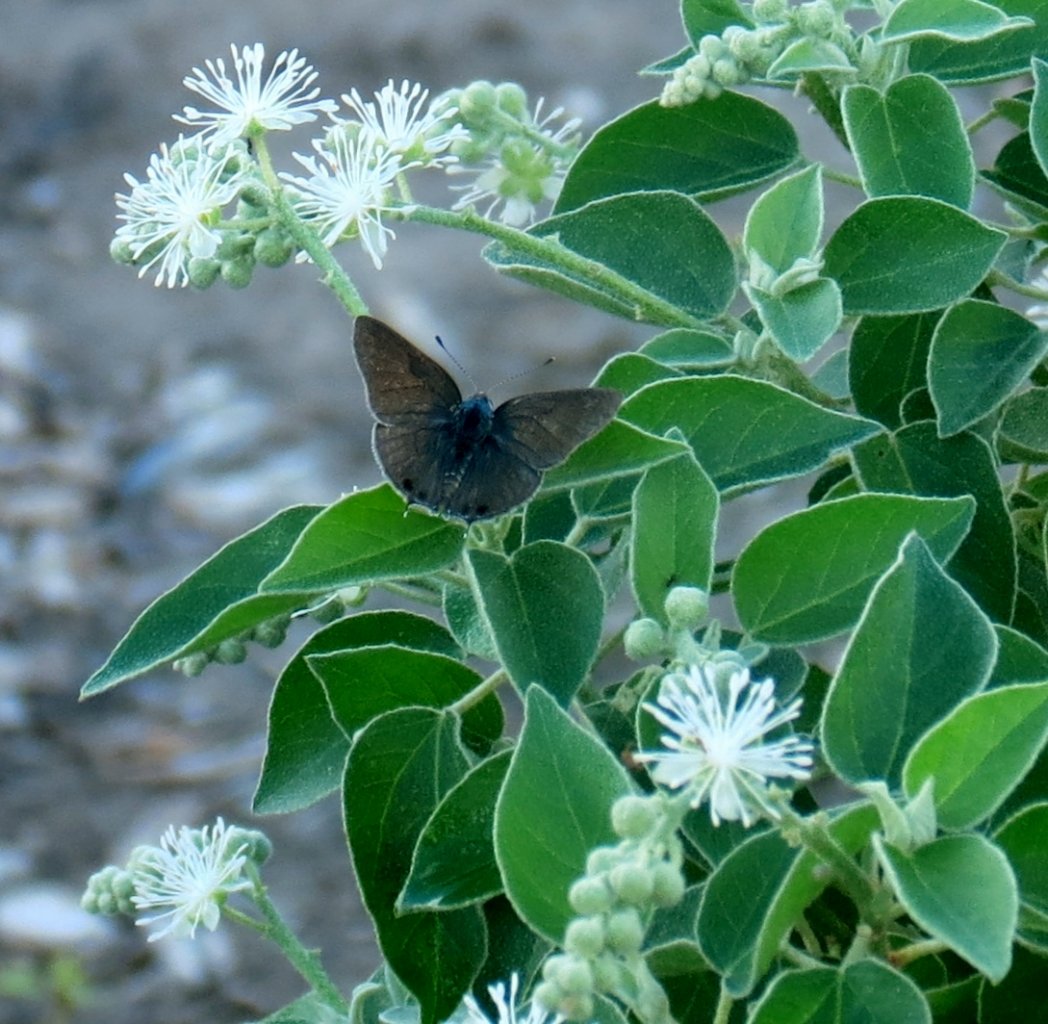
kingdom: Animalia
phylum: Arthropoda
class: Insecta
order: Lepidoptera
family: Lycaenidae
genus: Strymon
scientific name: Strymon melinus
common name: Gray Hairstreak
